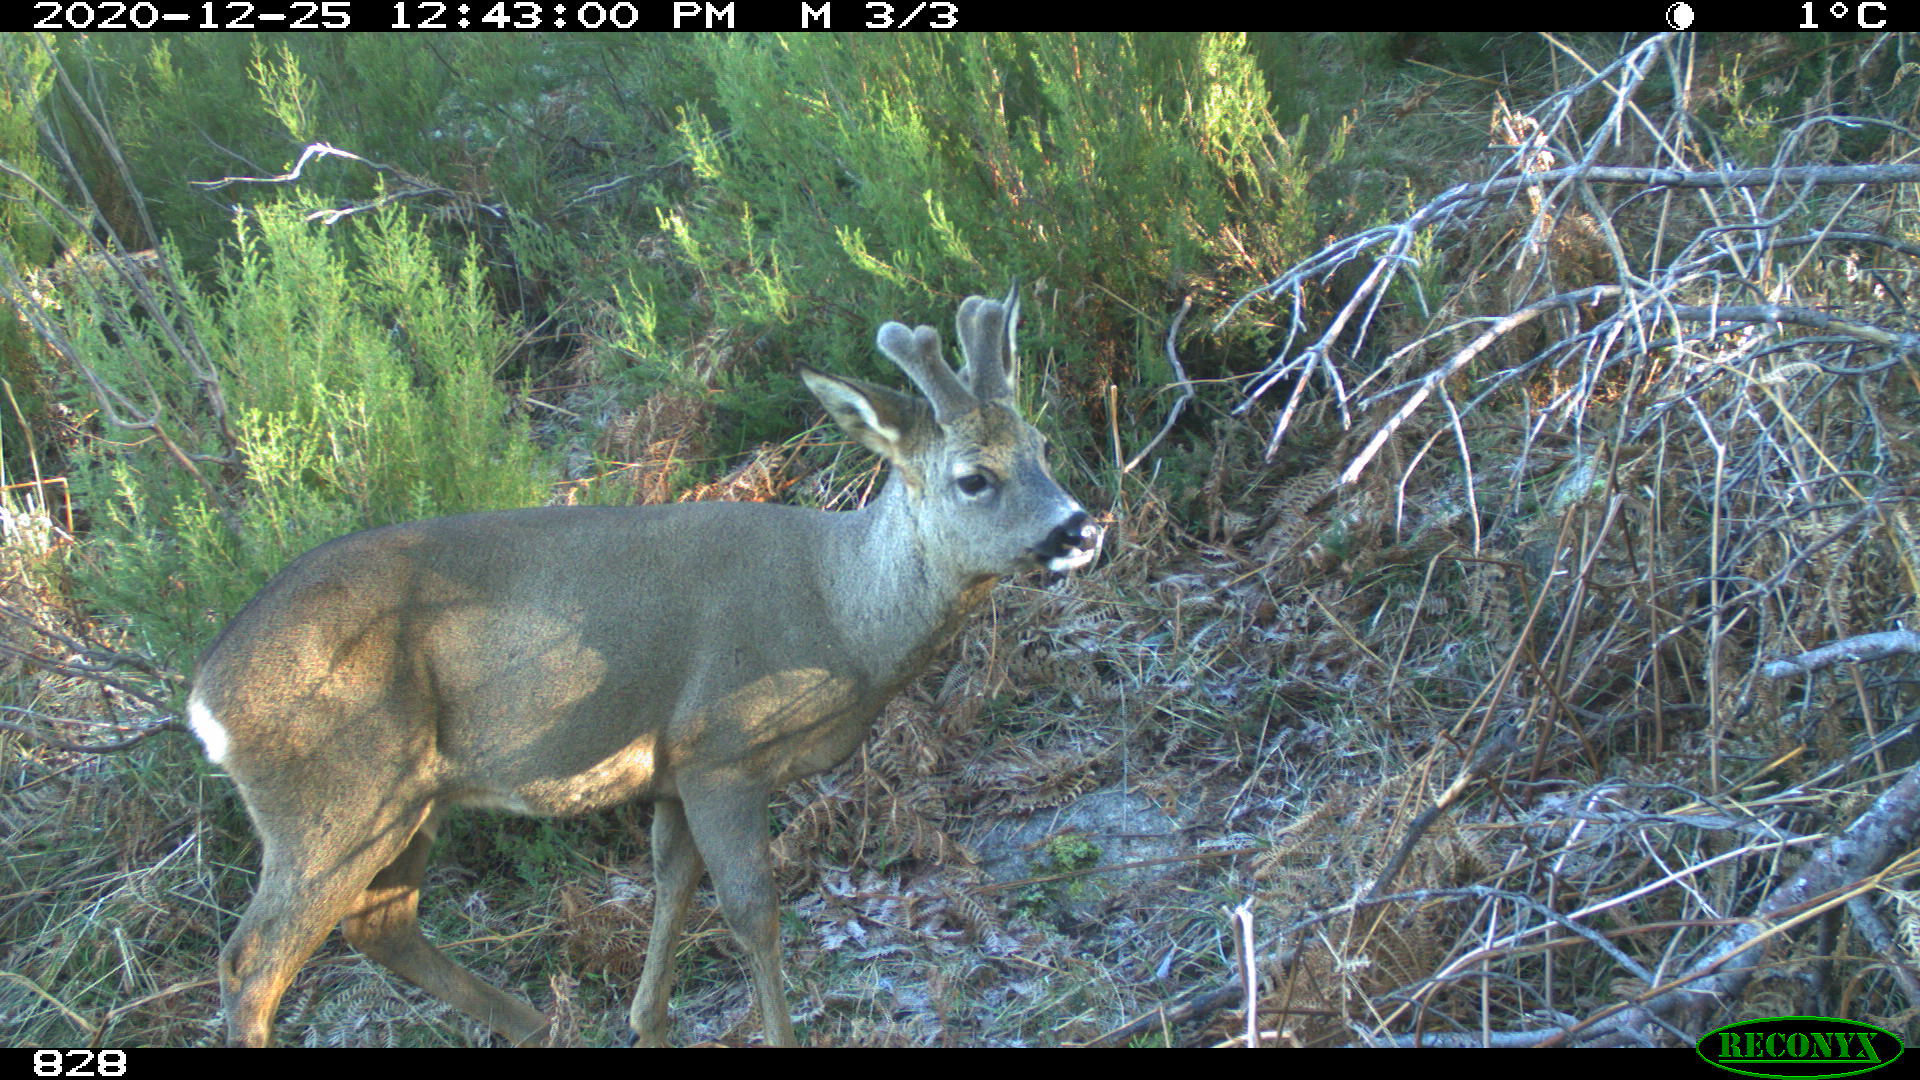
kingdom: Animalia
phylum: Chordata
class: Mammalia
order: Artiodactyla
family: Cervidae
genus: Capreolus
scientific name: Capreolus capreolus
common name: Western roe deer
